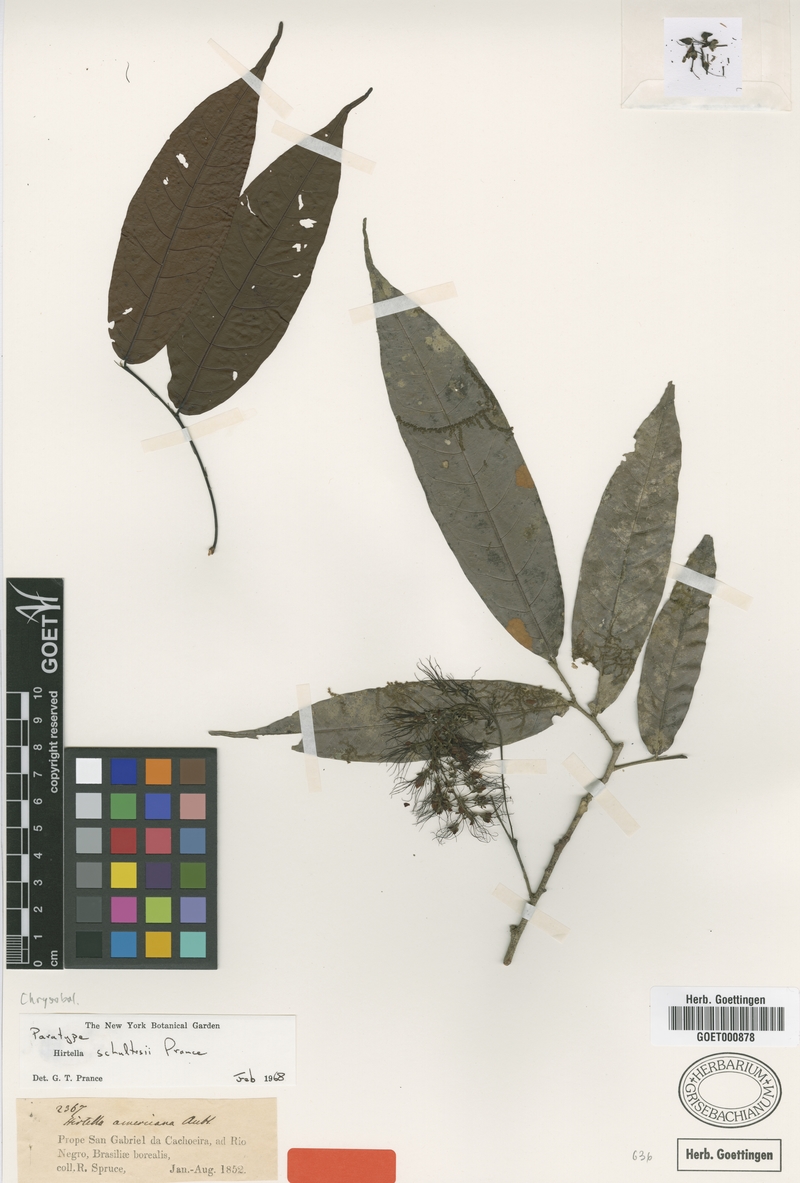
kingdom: Plantae
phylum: Tracheophyta
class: Magnoliopsida
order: Malpighiales
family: Chrysobalanaceae
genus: Hirtella
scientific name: Hirtella schultesii
